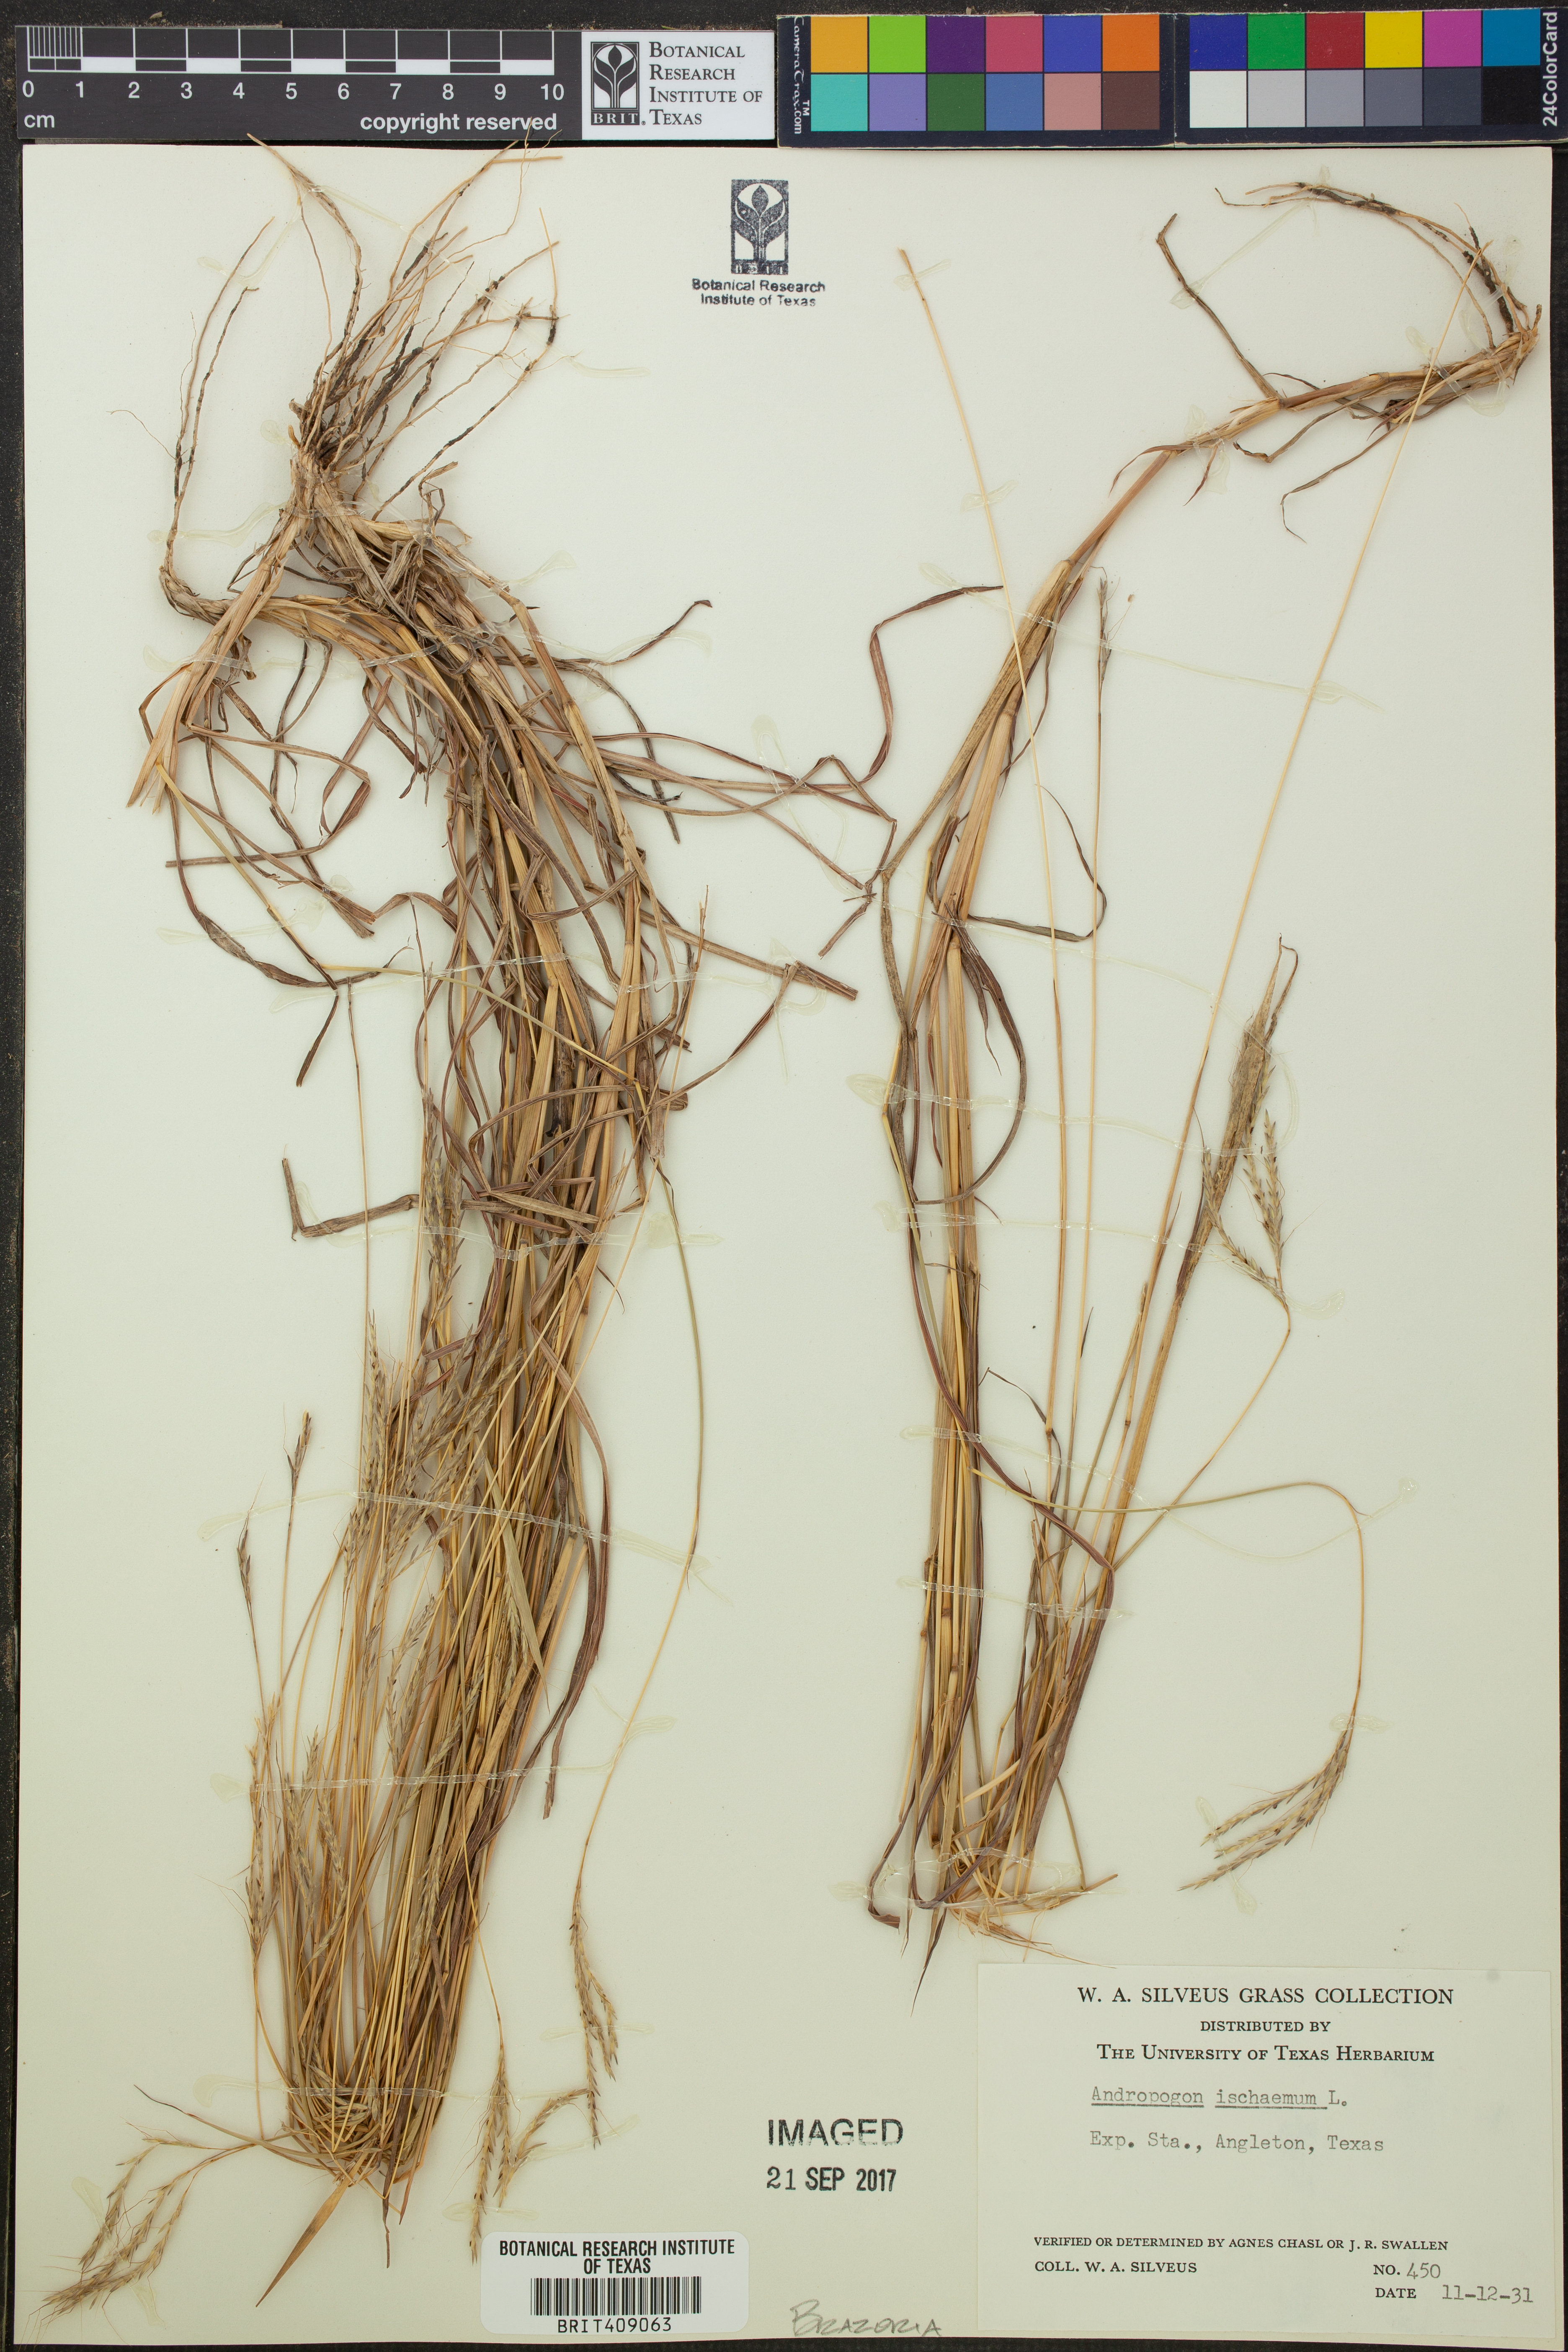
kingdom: Plantae
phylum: Tracheophyta
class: Liliopsida
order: Poales
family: Poaceae
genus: Andropogon
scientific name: Andropogon ischaemum
